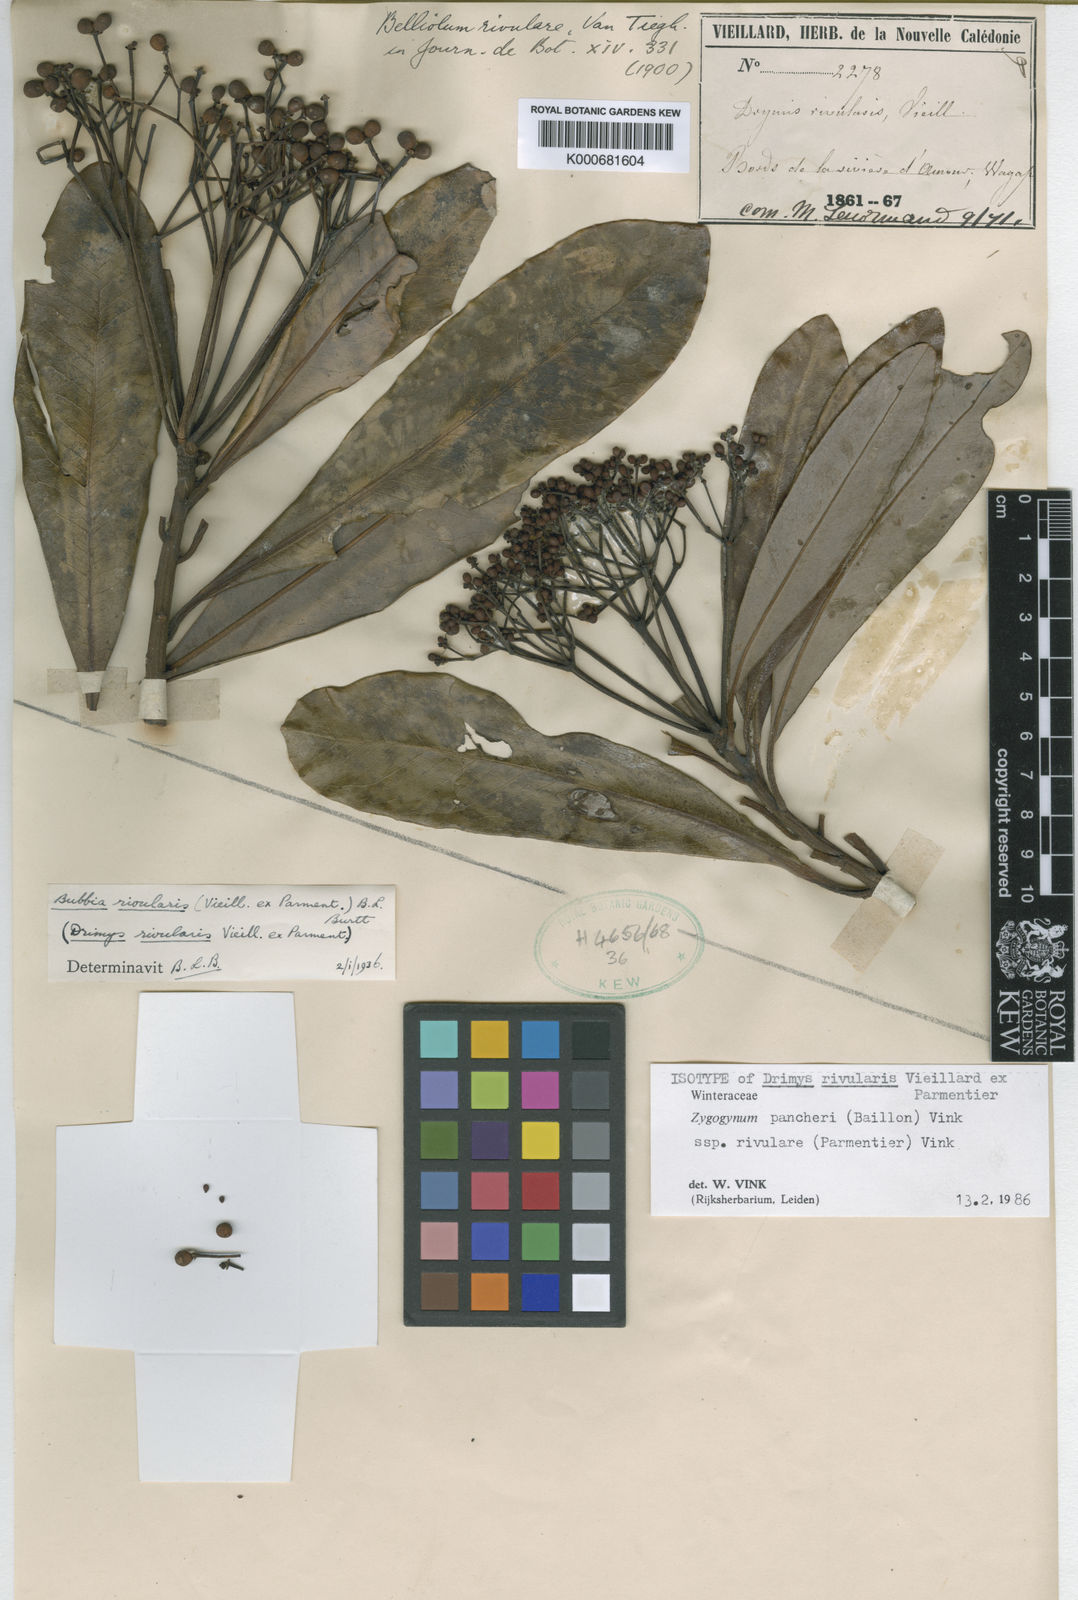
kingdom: Plantae
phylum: Tracheophyta
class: Magnoliopsida
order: Canellales
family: Winteraceae
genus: Zygogynum
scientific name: Zygogynum pancheri
